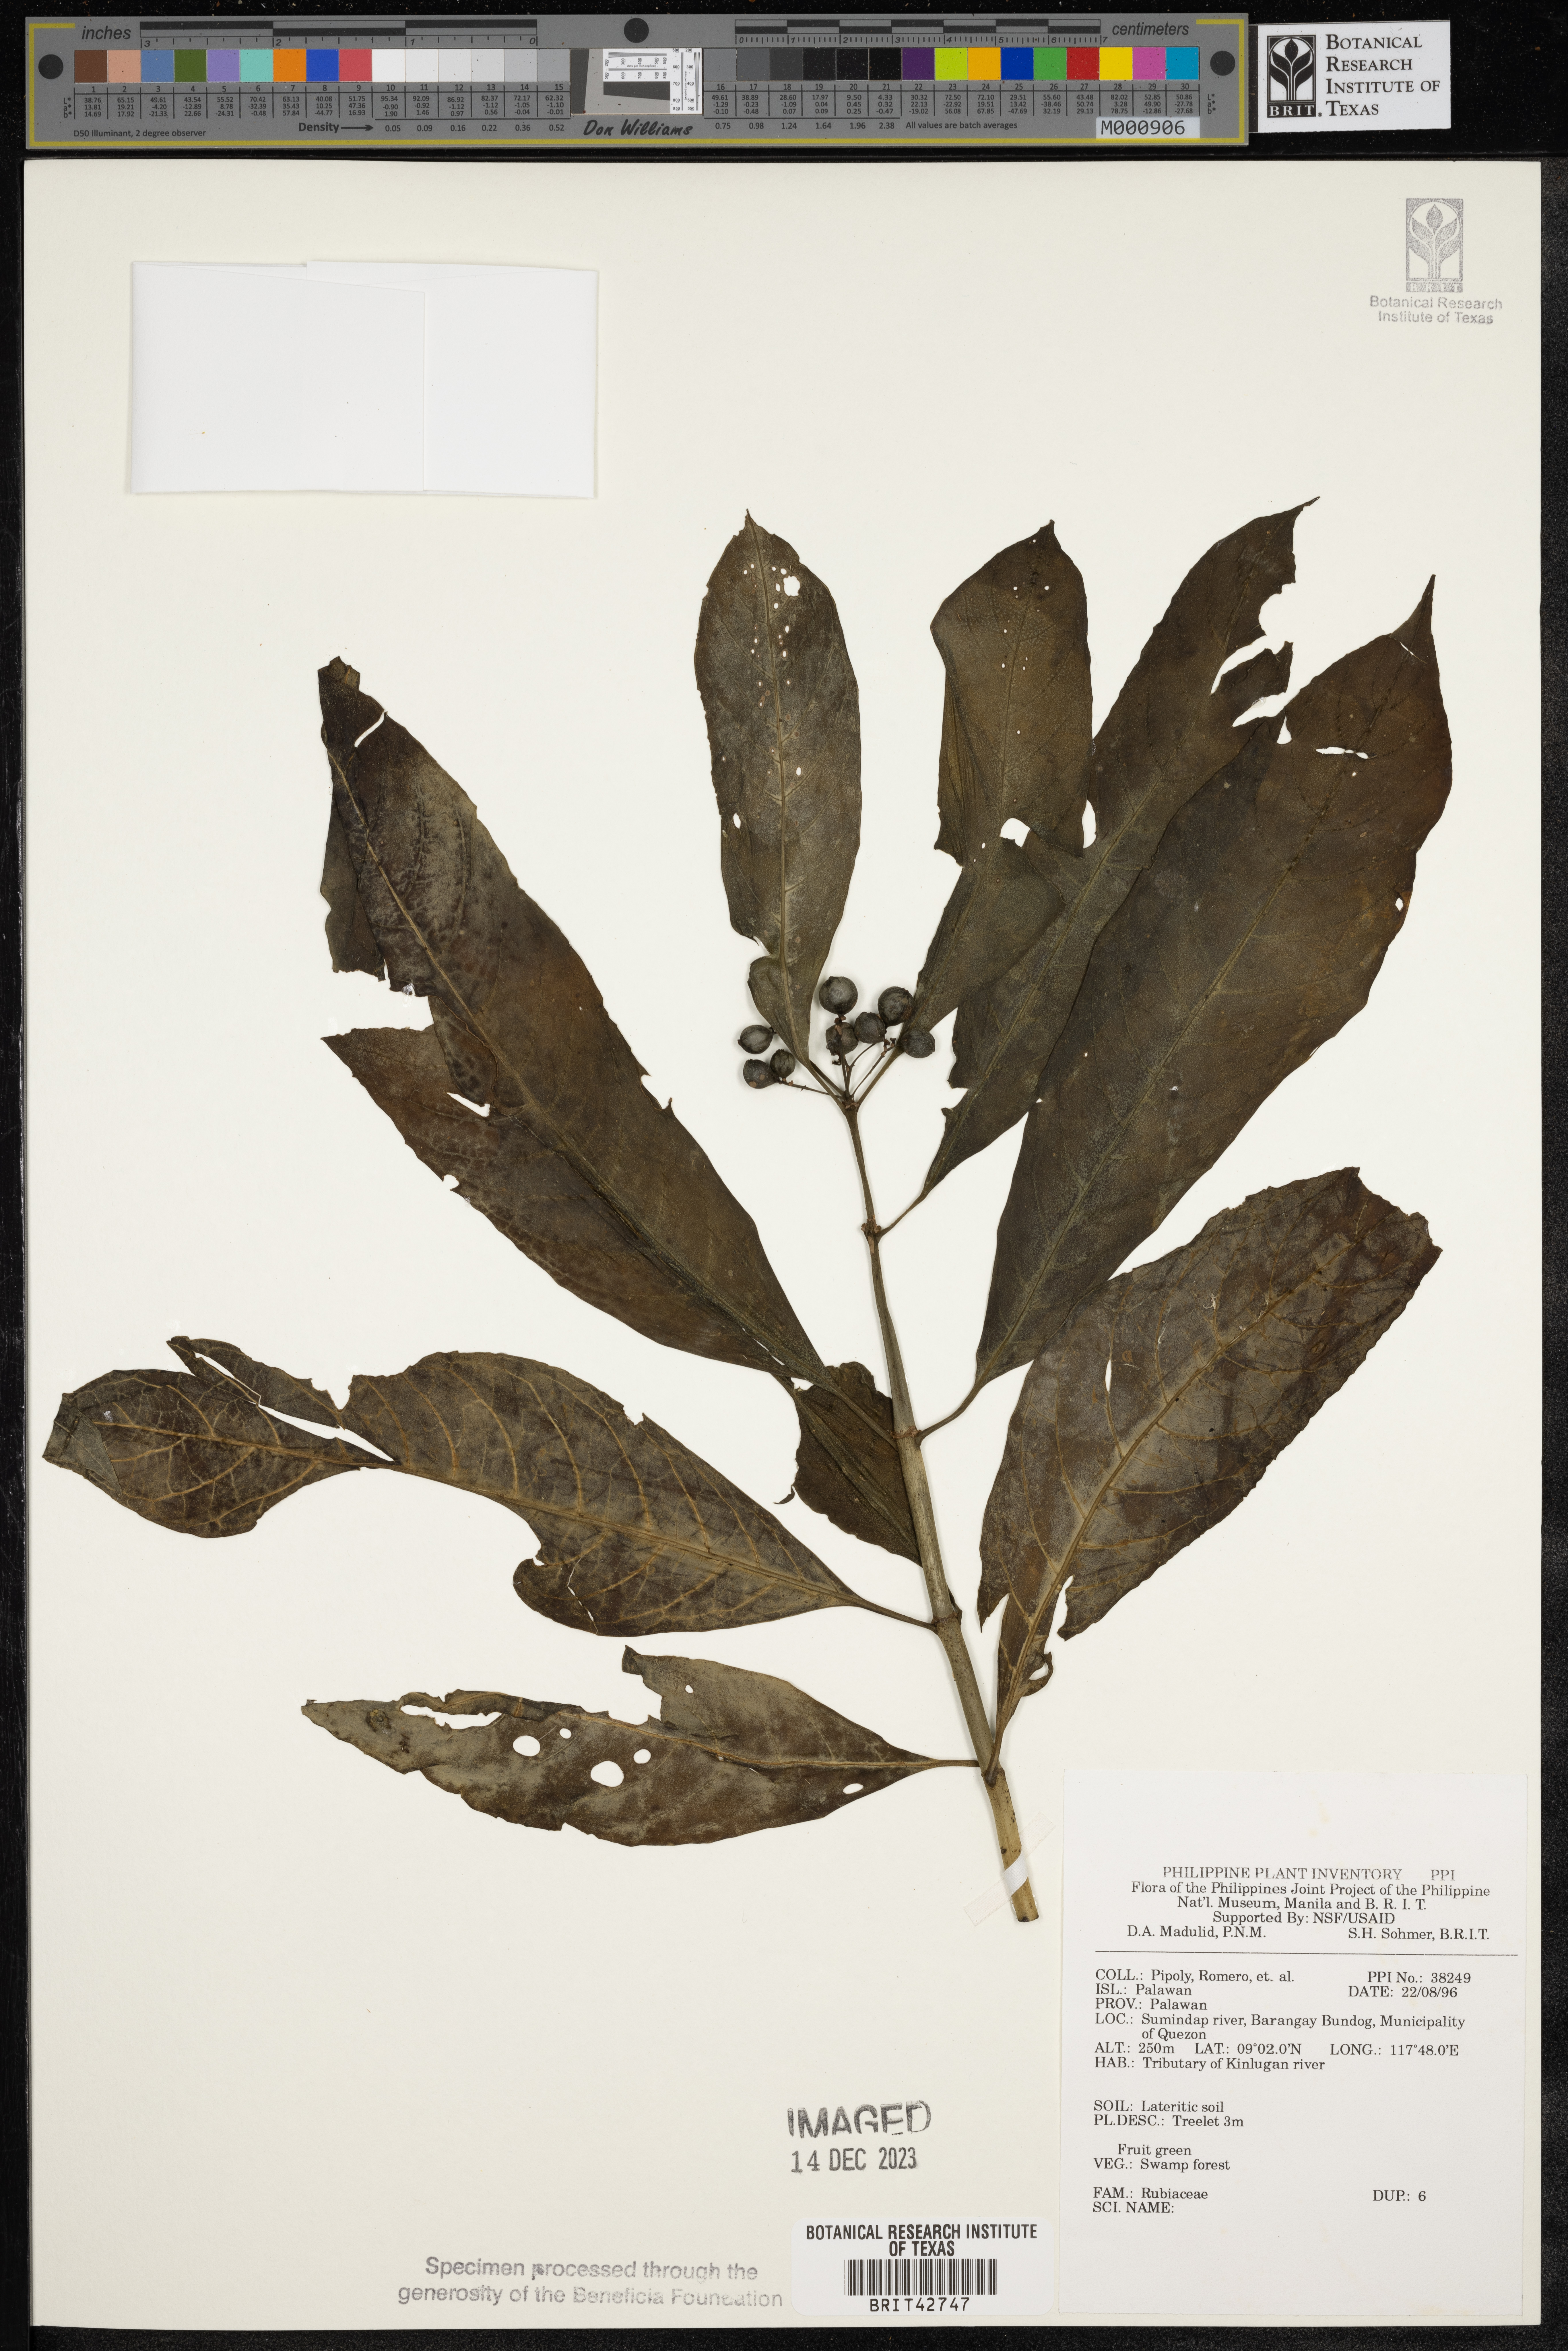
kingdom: Plantae
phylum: Tracheophyta
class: Magnoliopsida
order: Gentianales
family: Rubiaceae
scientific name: Rubiaceae
